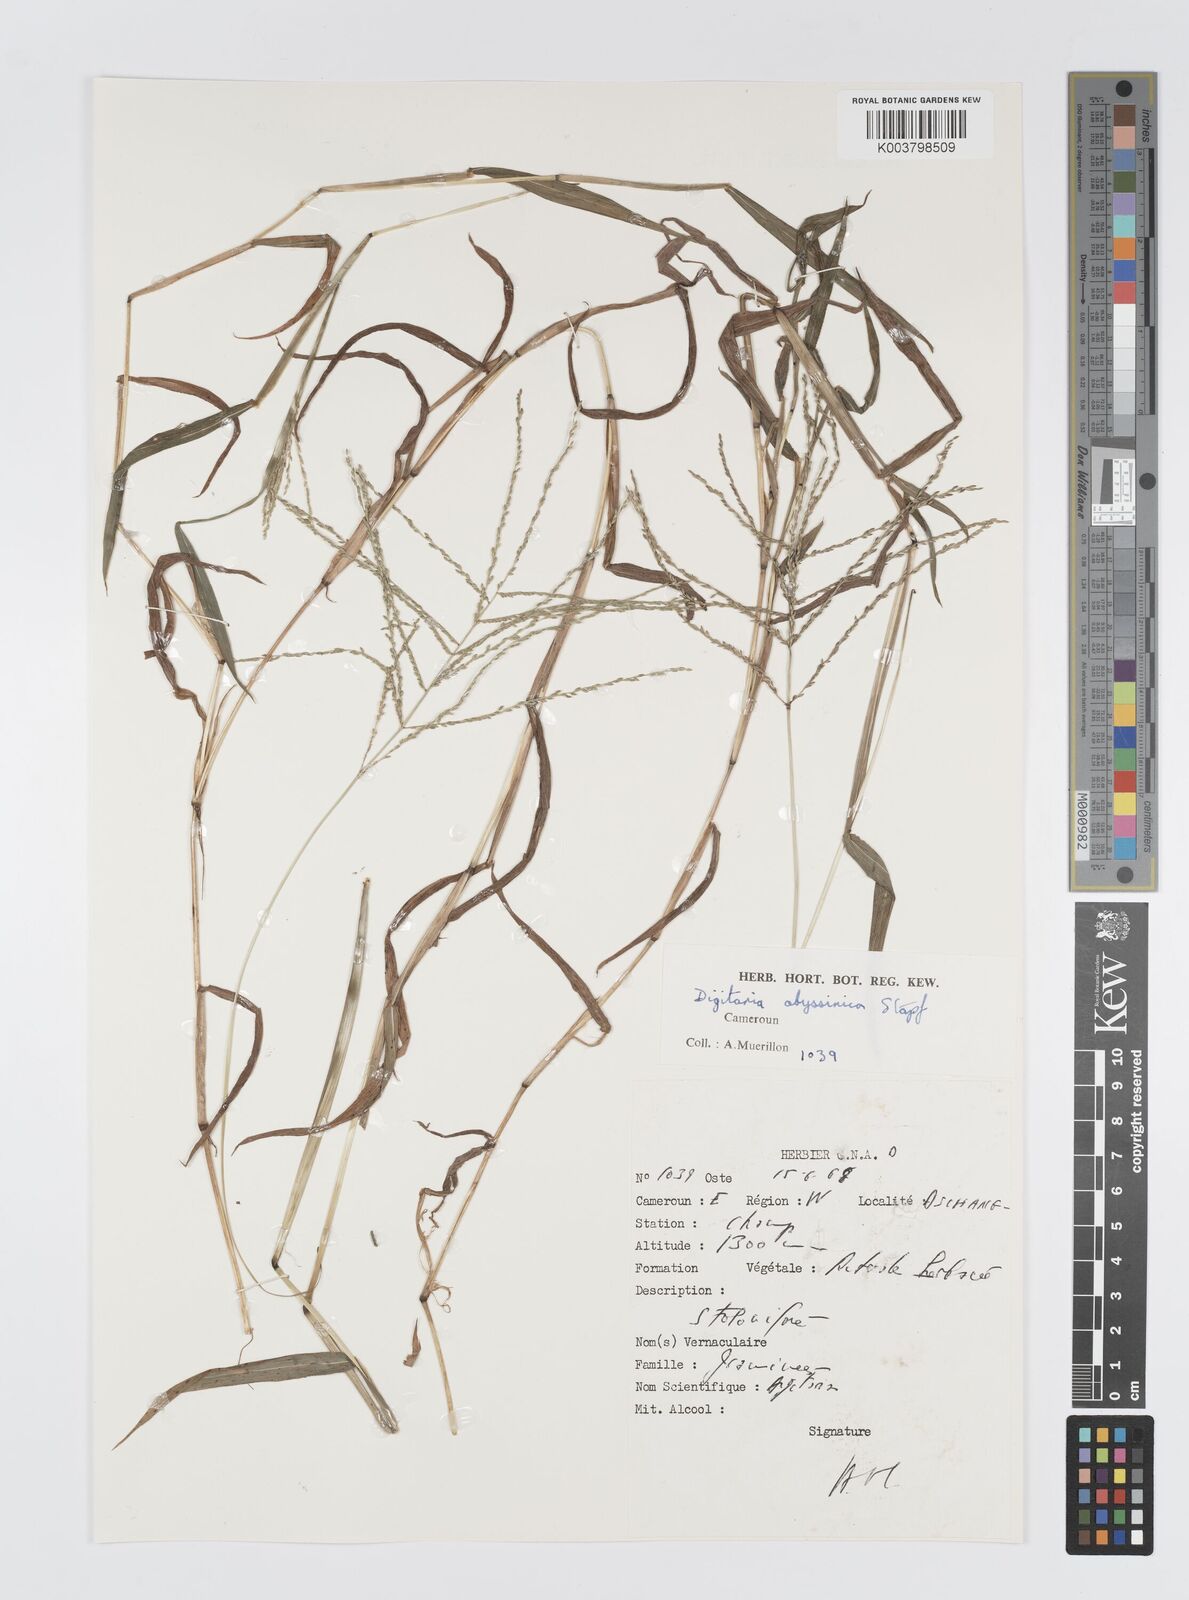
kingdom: Plantae
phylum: Tracheophyta
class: Liliopsida
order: Poales
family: Poaceae
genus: Digitaria
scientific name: Digitaria abyssinica
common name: African couchgrass
